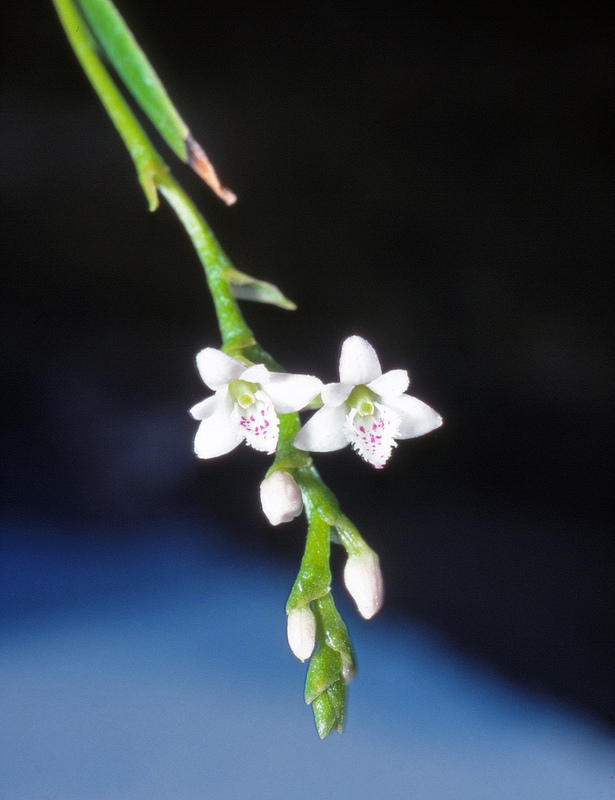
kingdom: Plantae
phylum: Tracheophyta
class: Liliopsida
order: Asparagales
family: Orchidaceae
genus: Epidendrum
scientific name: Epidendrum fimbriatum
